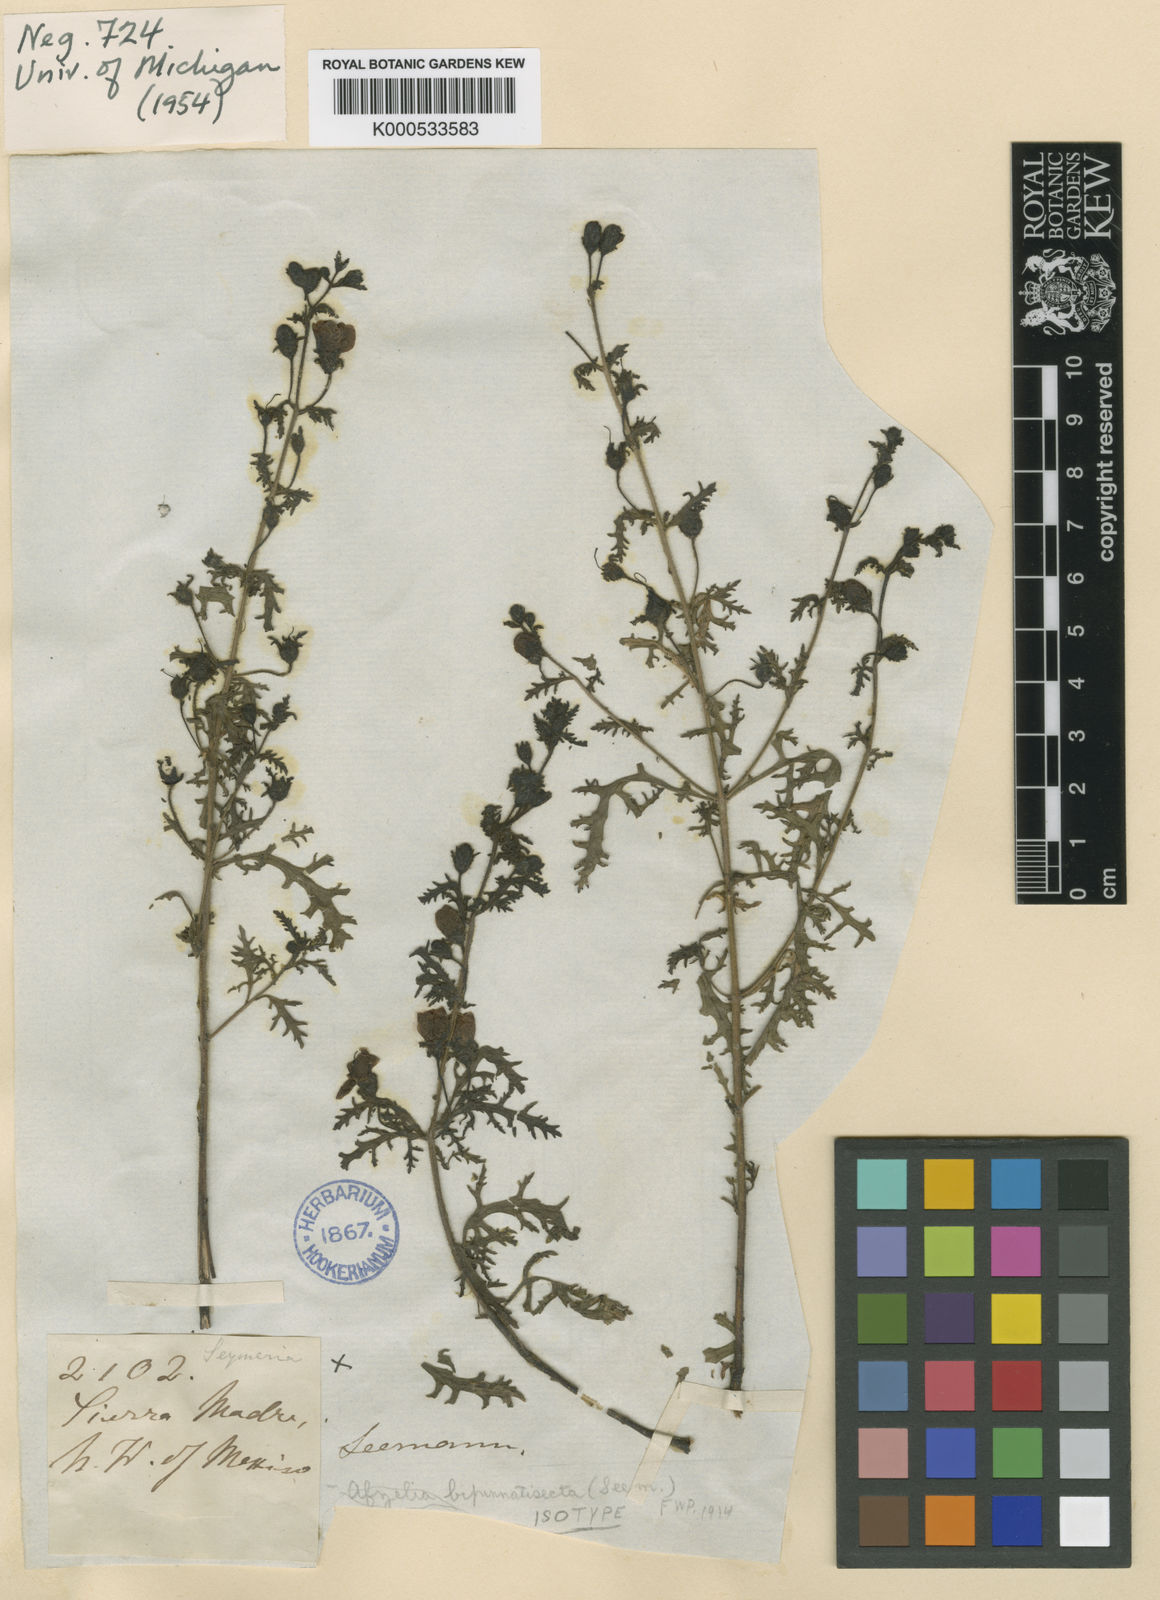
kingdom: Plantae
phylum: Tracheophyta
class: Magnoliopsida
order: Lamiales
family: Orobanchaceae
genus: Seymeria
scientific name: Seymeria bipinnatisecta
